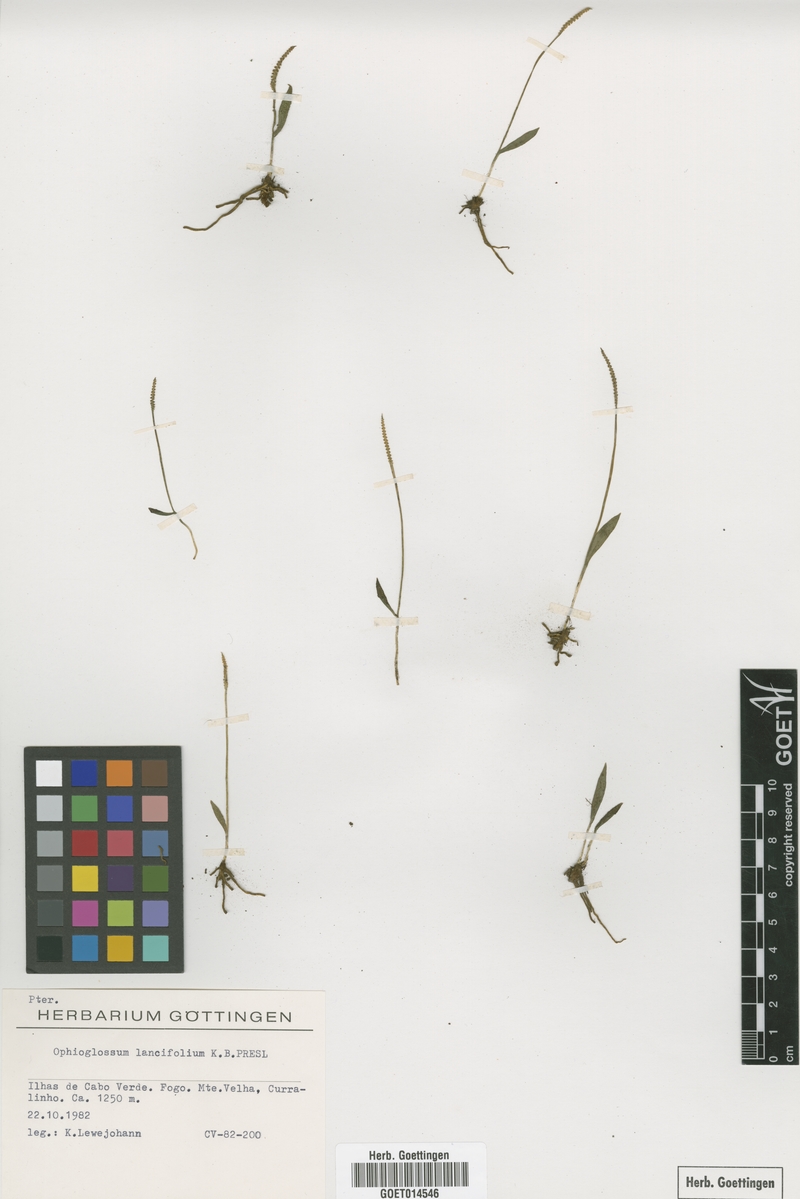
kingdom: Plantae
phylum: Tracheophyta
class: Polypodiopsida
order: Ophioglossales
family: Ophioglossaceae
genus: Ophioglossum
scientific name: Ophioglossum lancifolium
